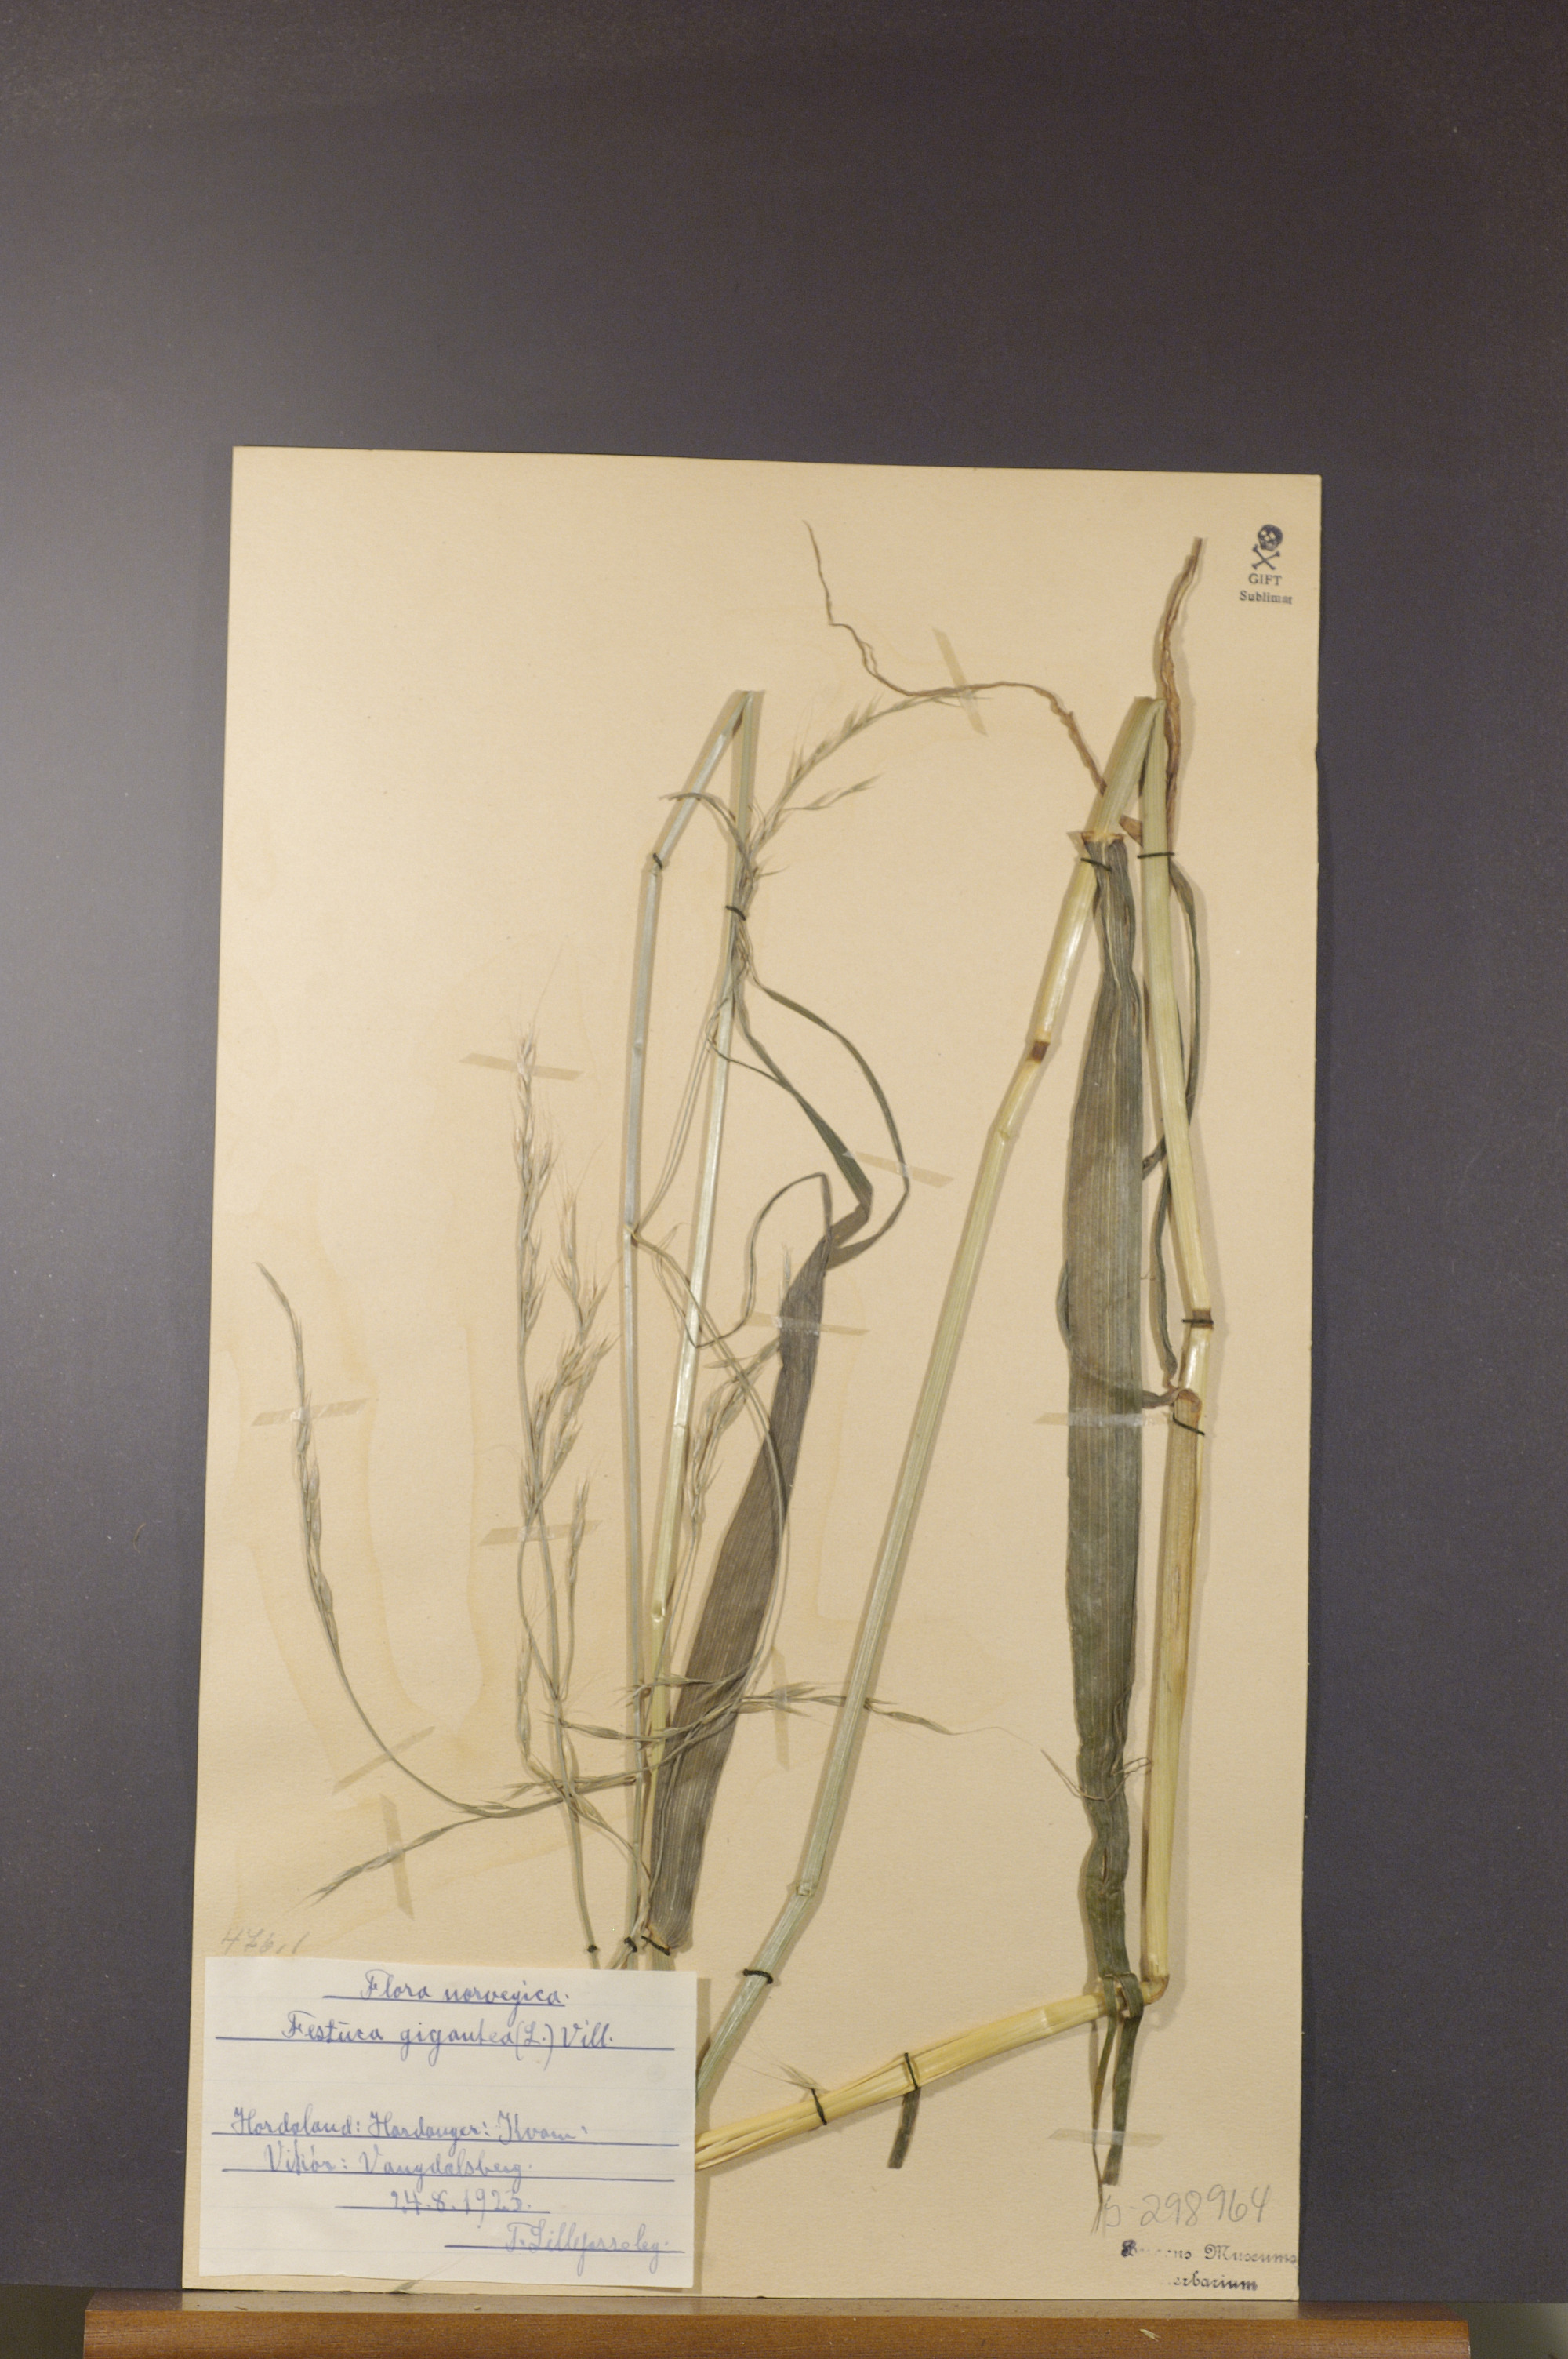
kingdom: Plantae
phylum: Tracheophyta
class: Liliopsida
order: Poales
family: Poaceae
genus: Lolium
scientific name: Lolium giganteum
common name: Giant fescue
